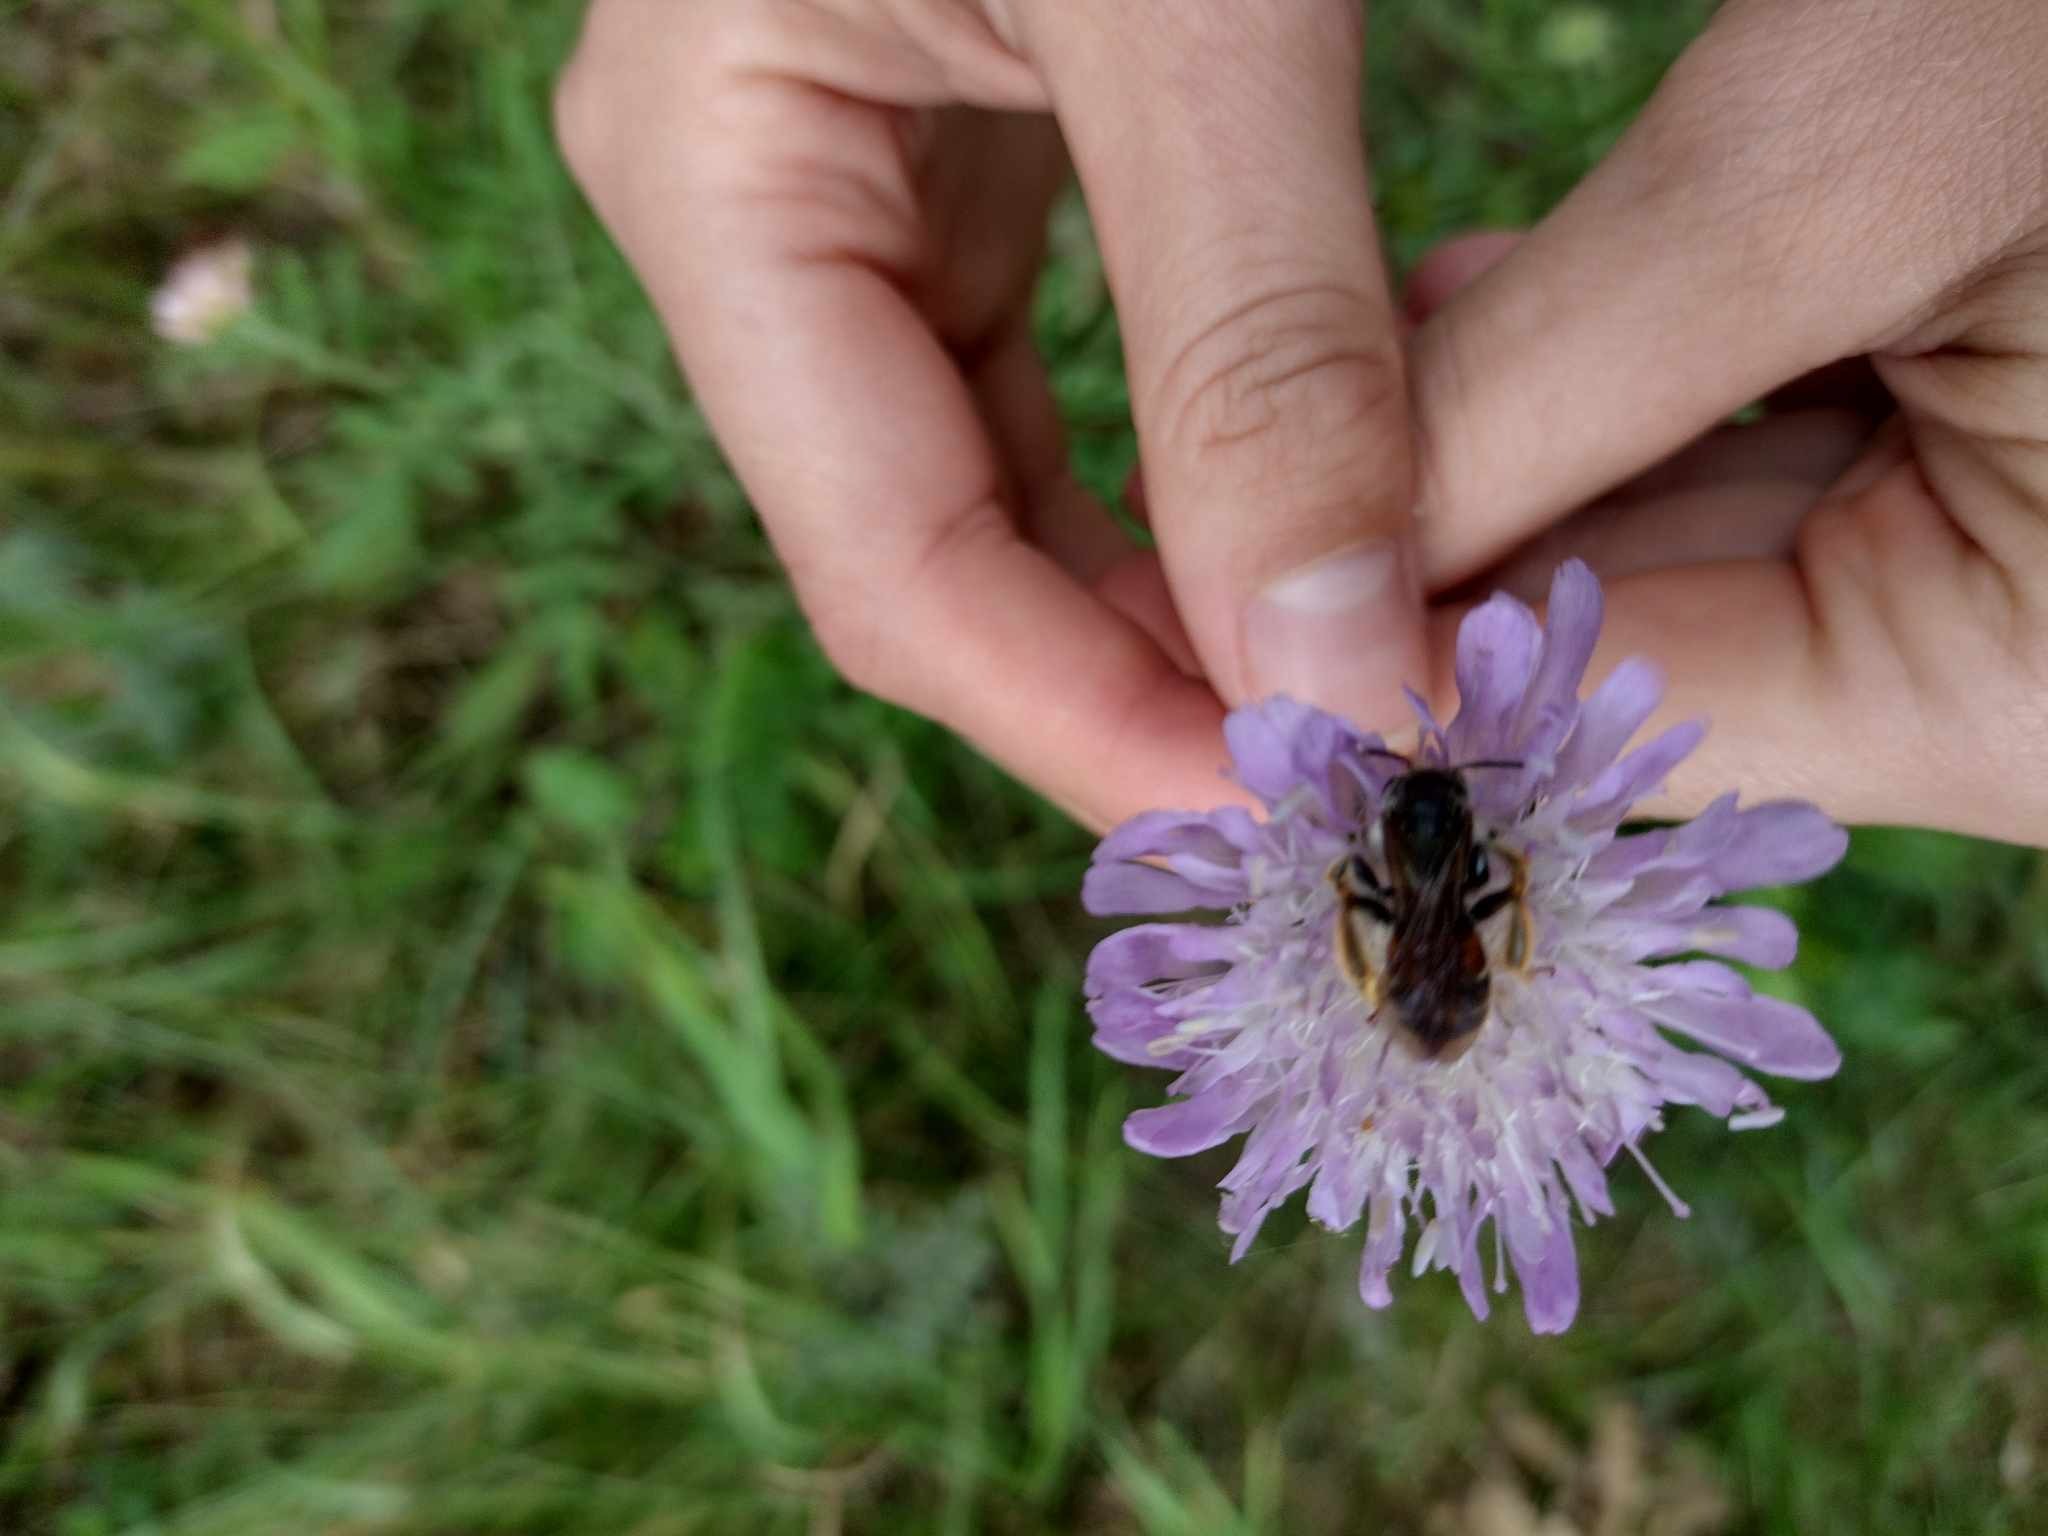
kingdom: Animalia
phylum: Arthropoda
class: Insecta
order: Hymenoptera
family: Andrenidae
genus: Andrena
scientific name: Andrena hattorfiana
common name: Blåhatjordbi
